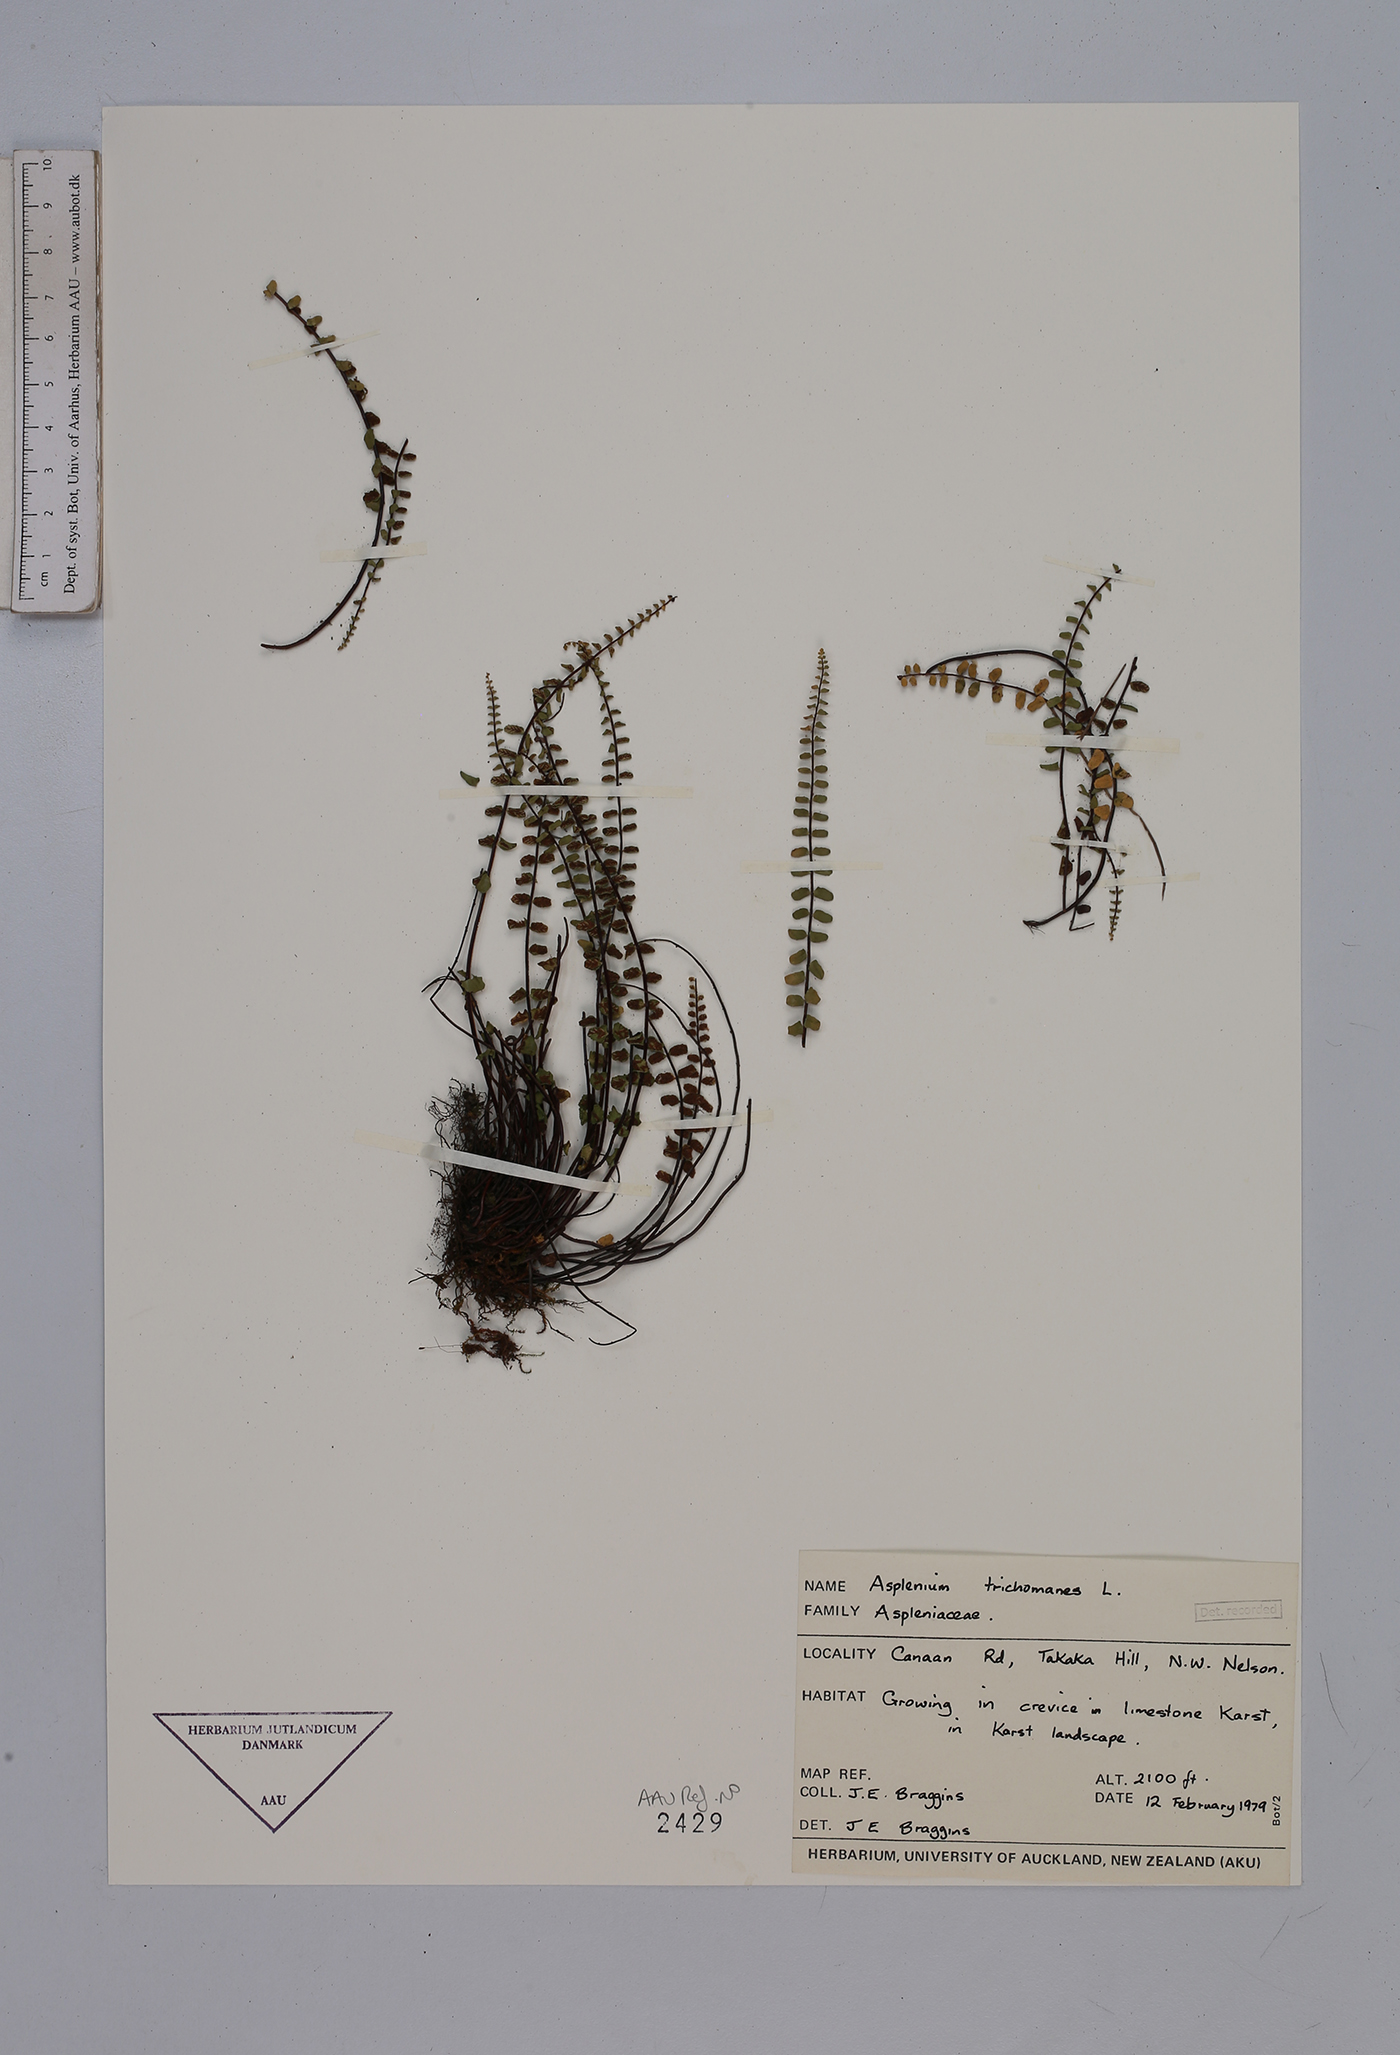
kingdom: Plantae
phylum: Tracheophyta
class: Polypodiopsida
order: Polypodiales
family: Aspleniaceae
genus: Asplenium
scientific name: Asplenium trichomanes
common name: Maidenhair spleenwort
